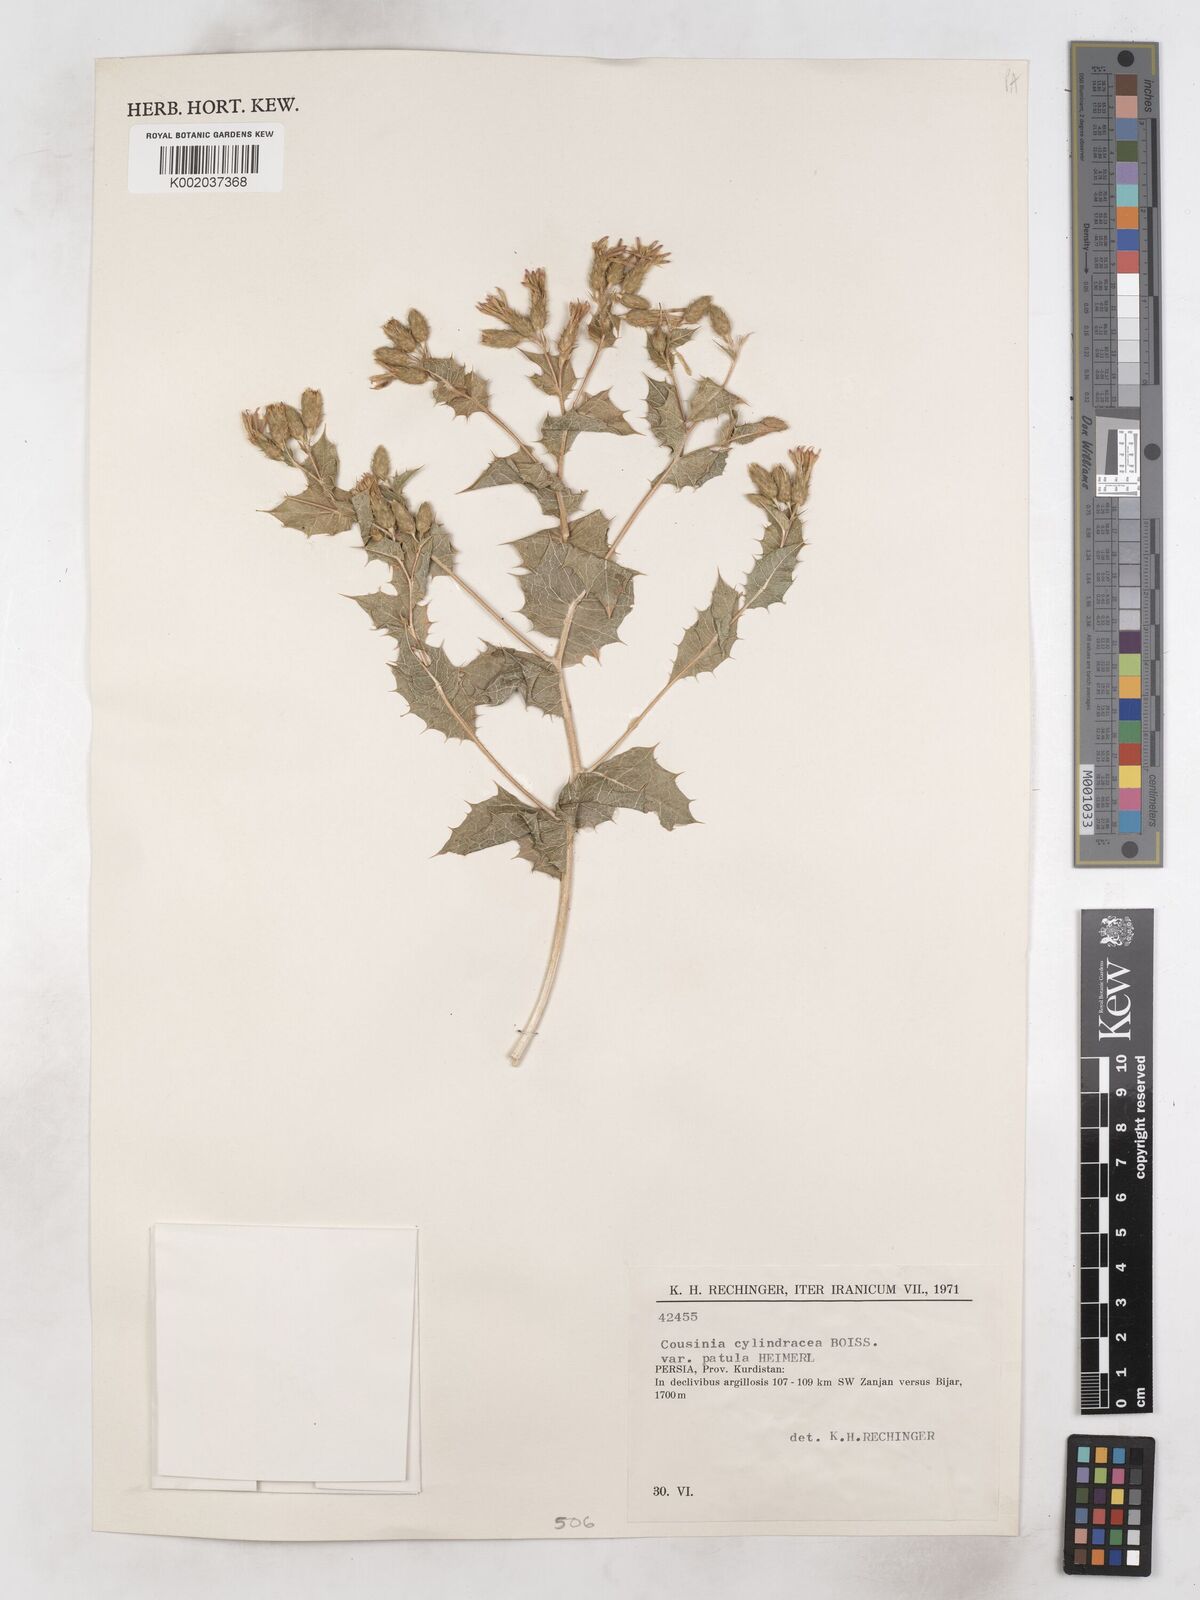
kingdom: Plantae
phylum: Tracheophyta
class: Magnoliopsida
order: Asterales
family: Asteraceae
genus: Cousinia
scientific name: Cousinia cylindracea
